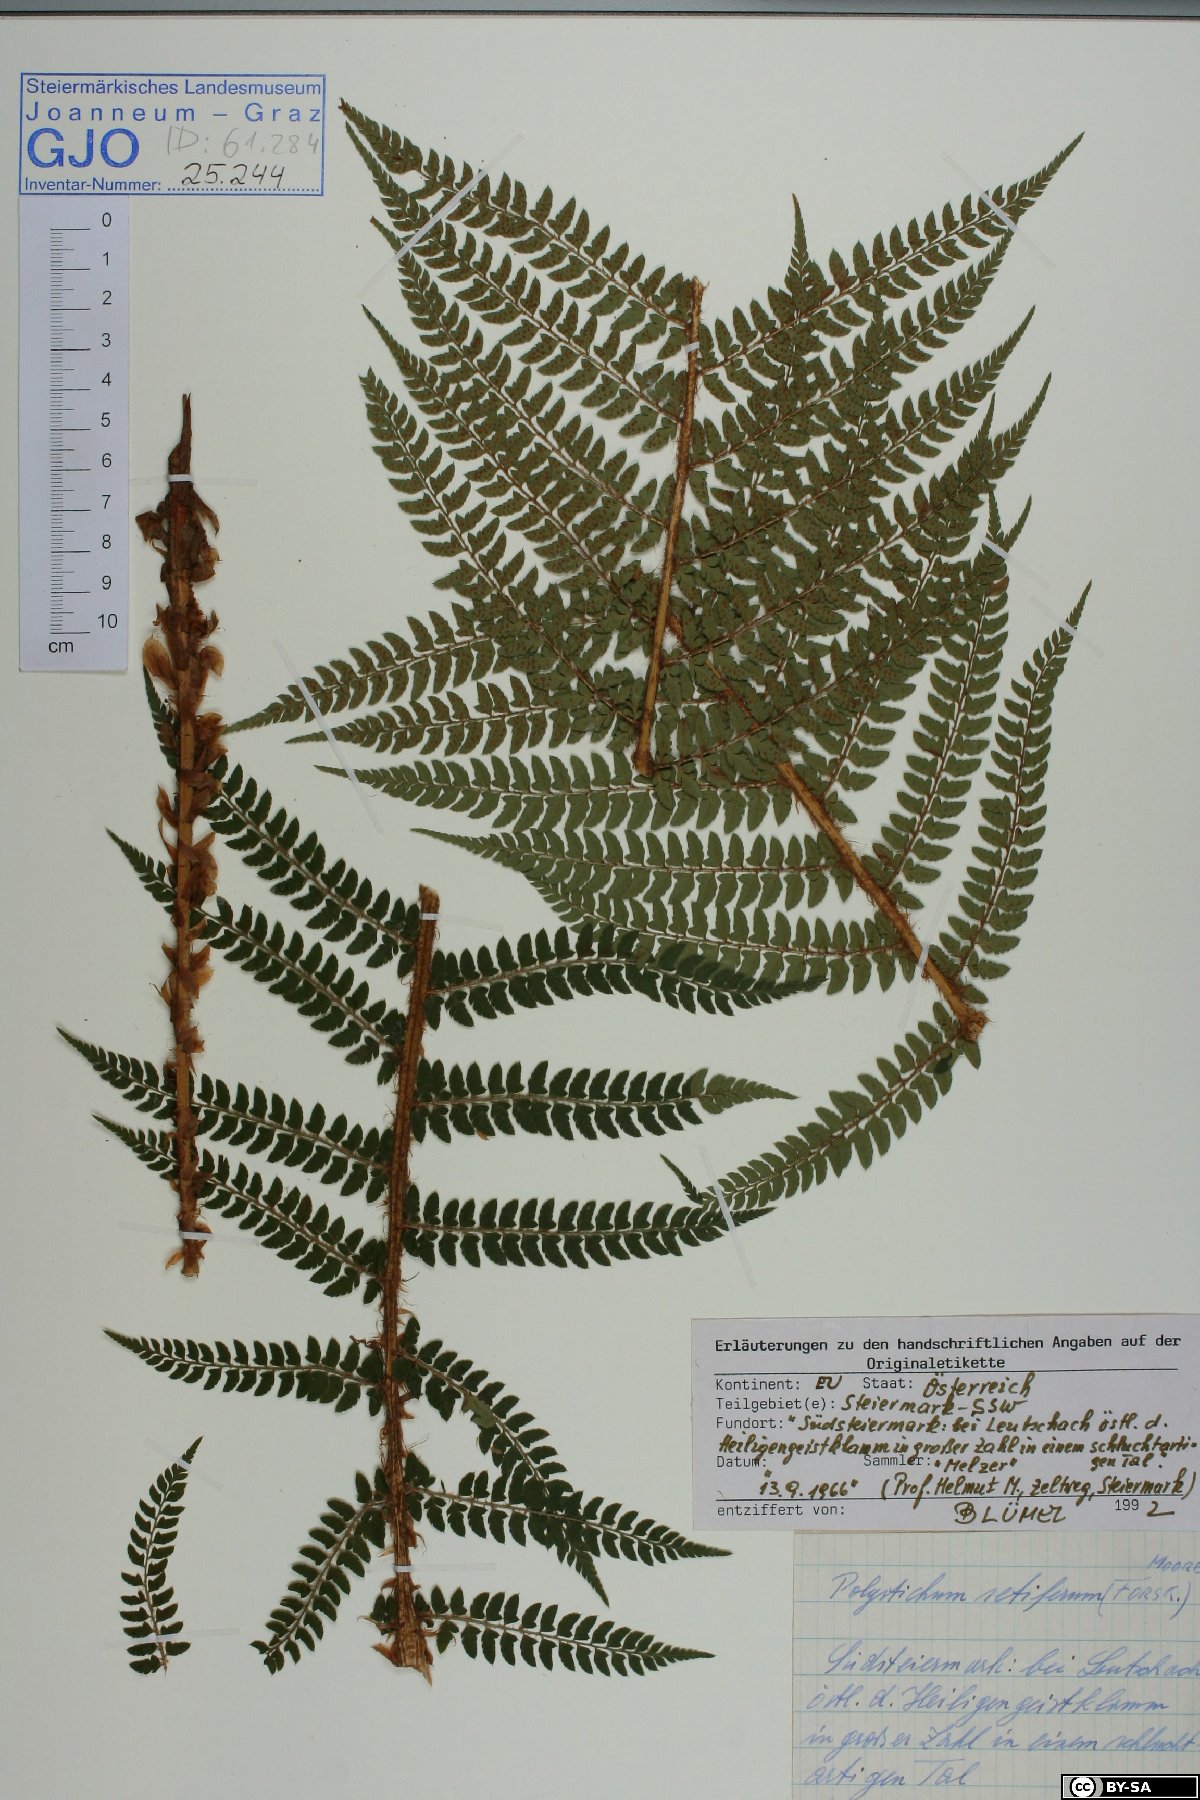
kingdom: Plantae
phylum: Tracheophyta
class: Polypodiopsida
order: Polypodiales
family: Dryopteridaceae
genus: Polystichum
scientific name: Polystichum setiferum
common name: Soft shield-fern
